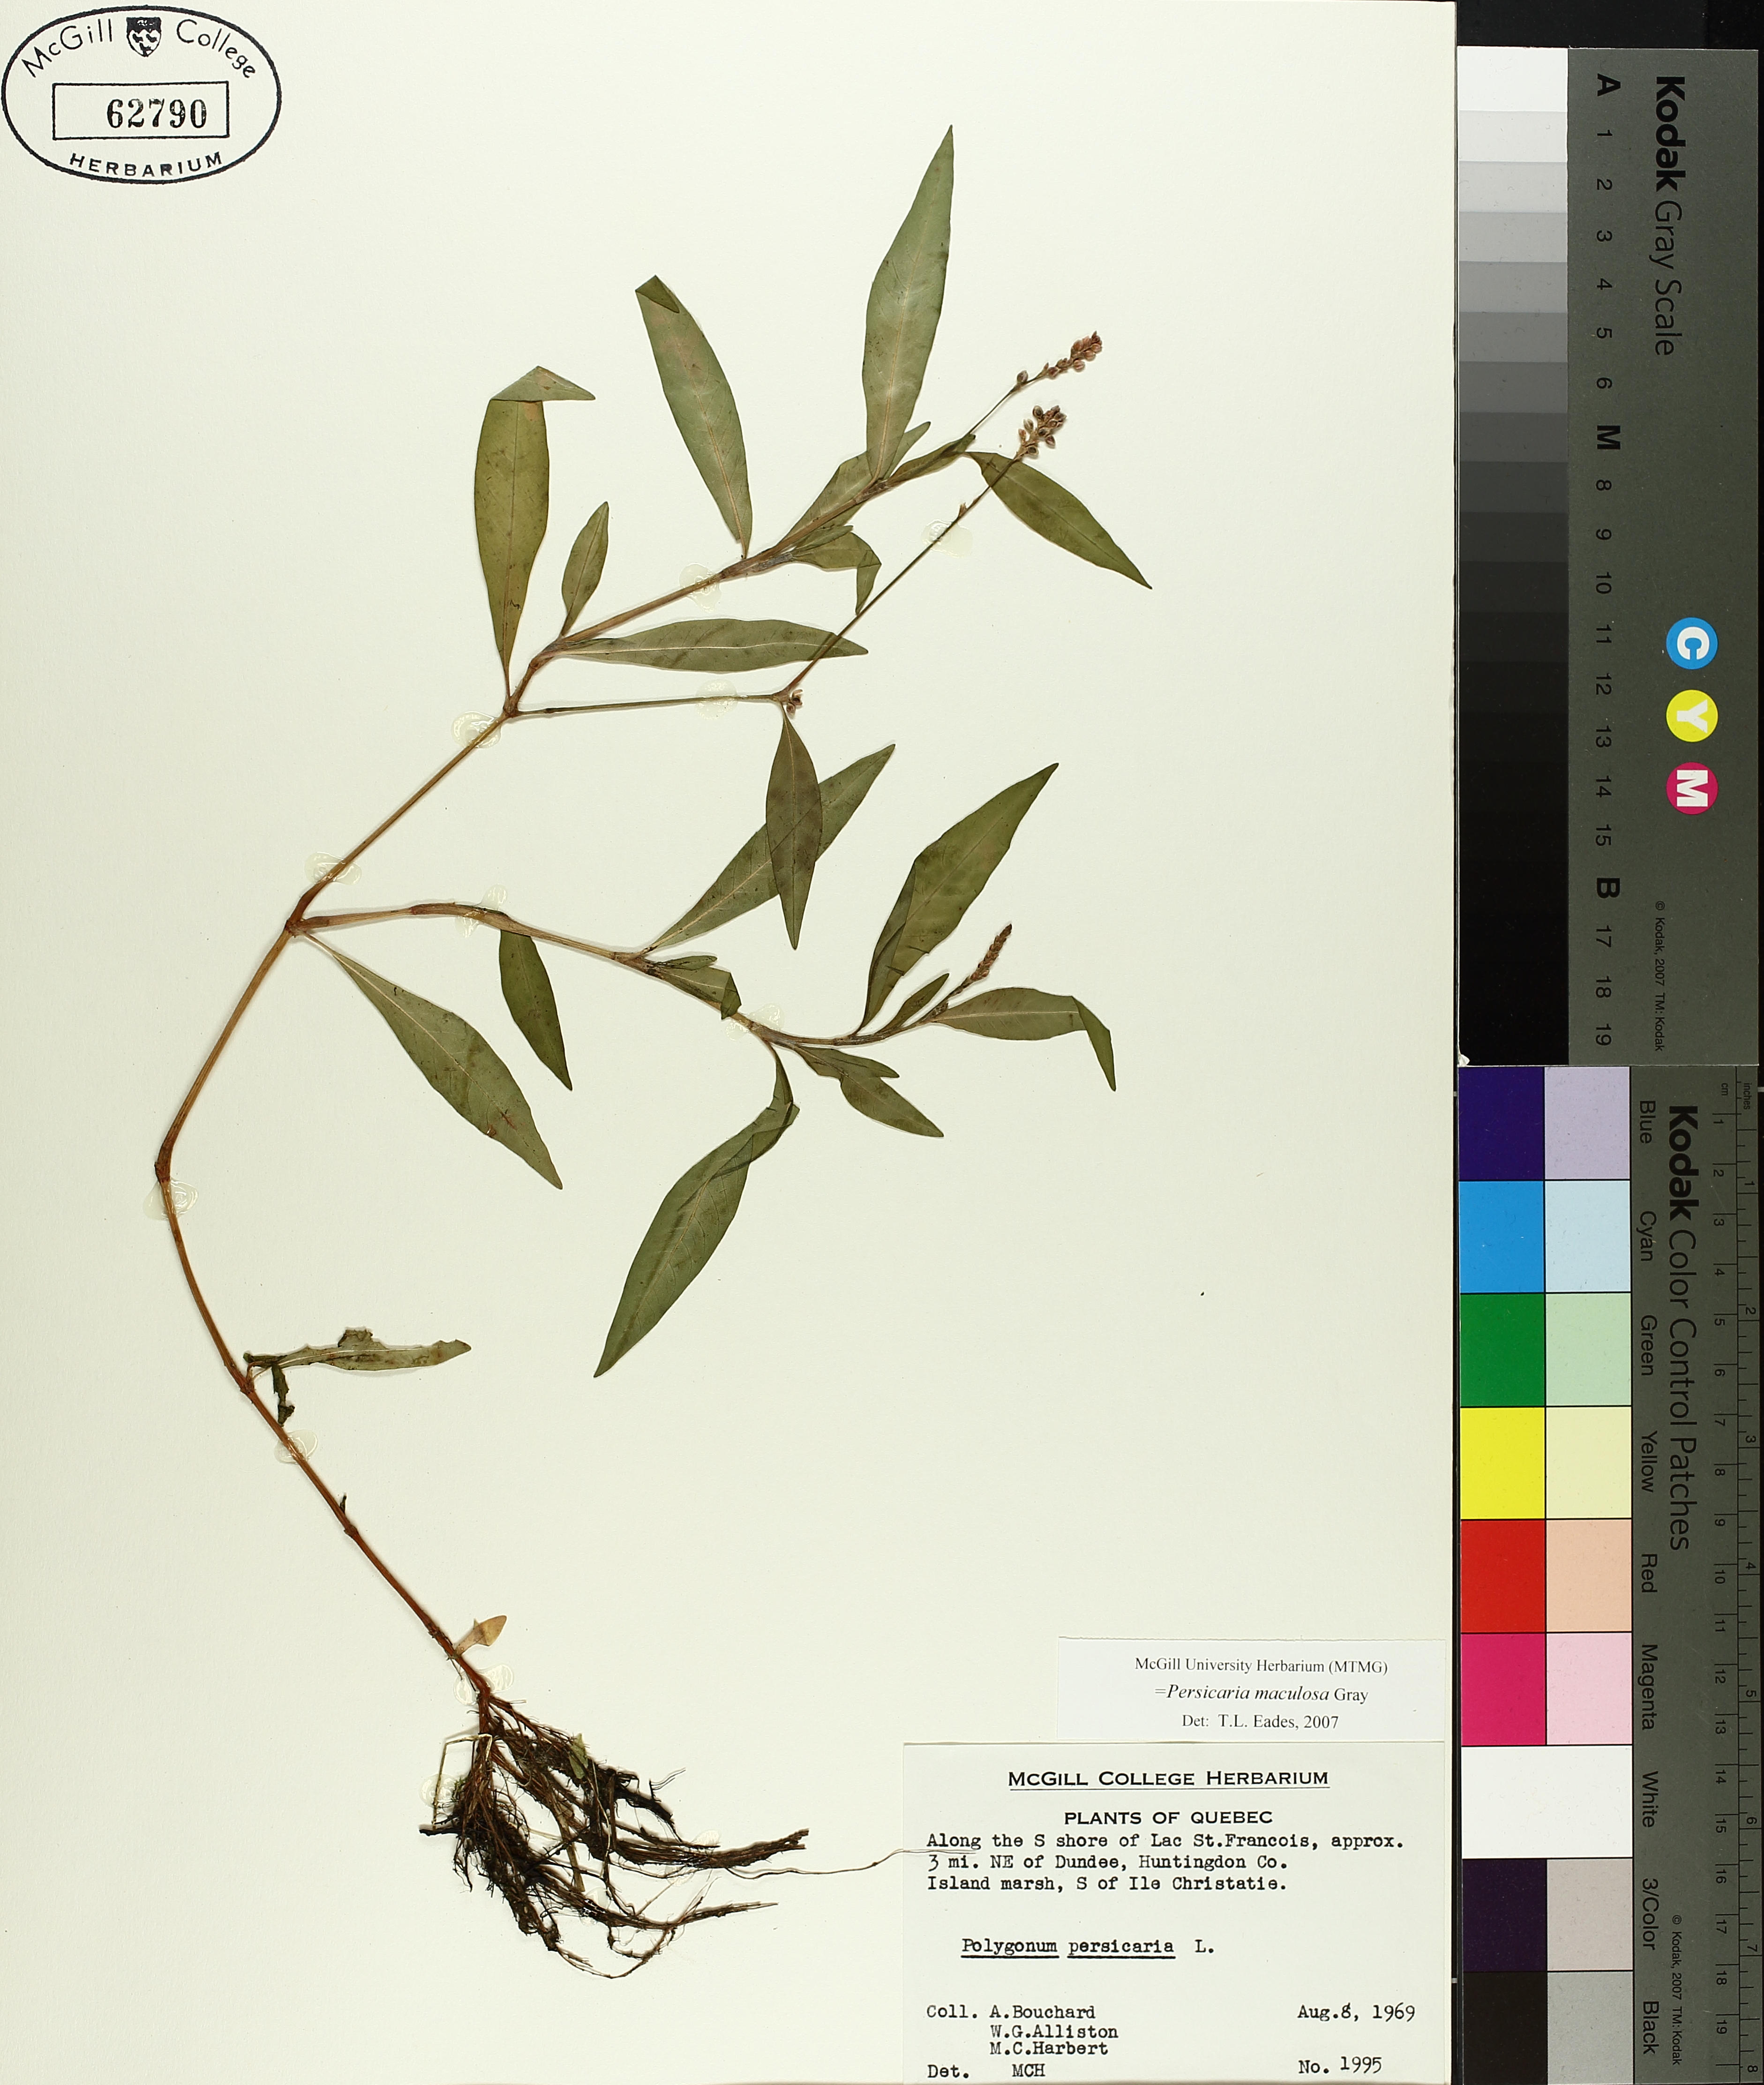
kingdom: Plantae
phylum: Tracheophyta
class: Magnoliopsida
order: Caryophyllales
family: Polygonaceae
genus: Persicaria
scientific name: Persicaria maculosa
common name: Redshank
